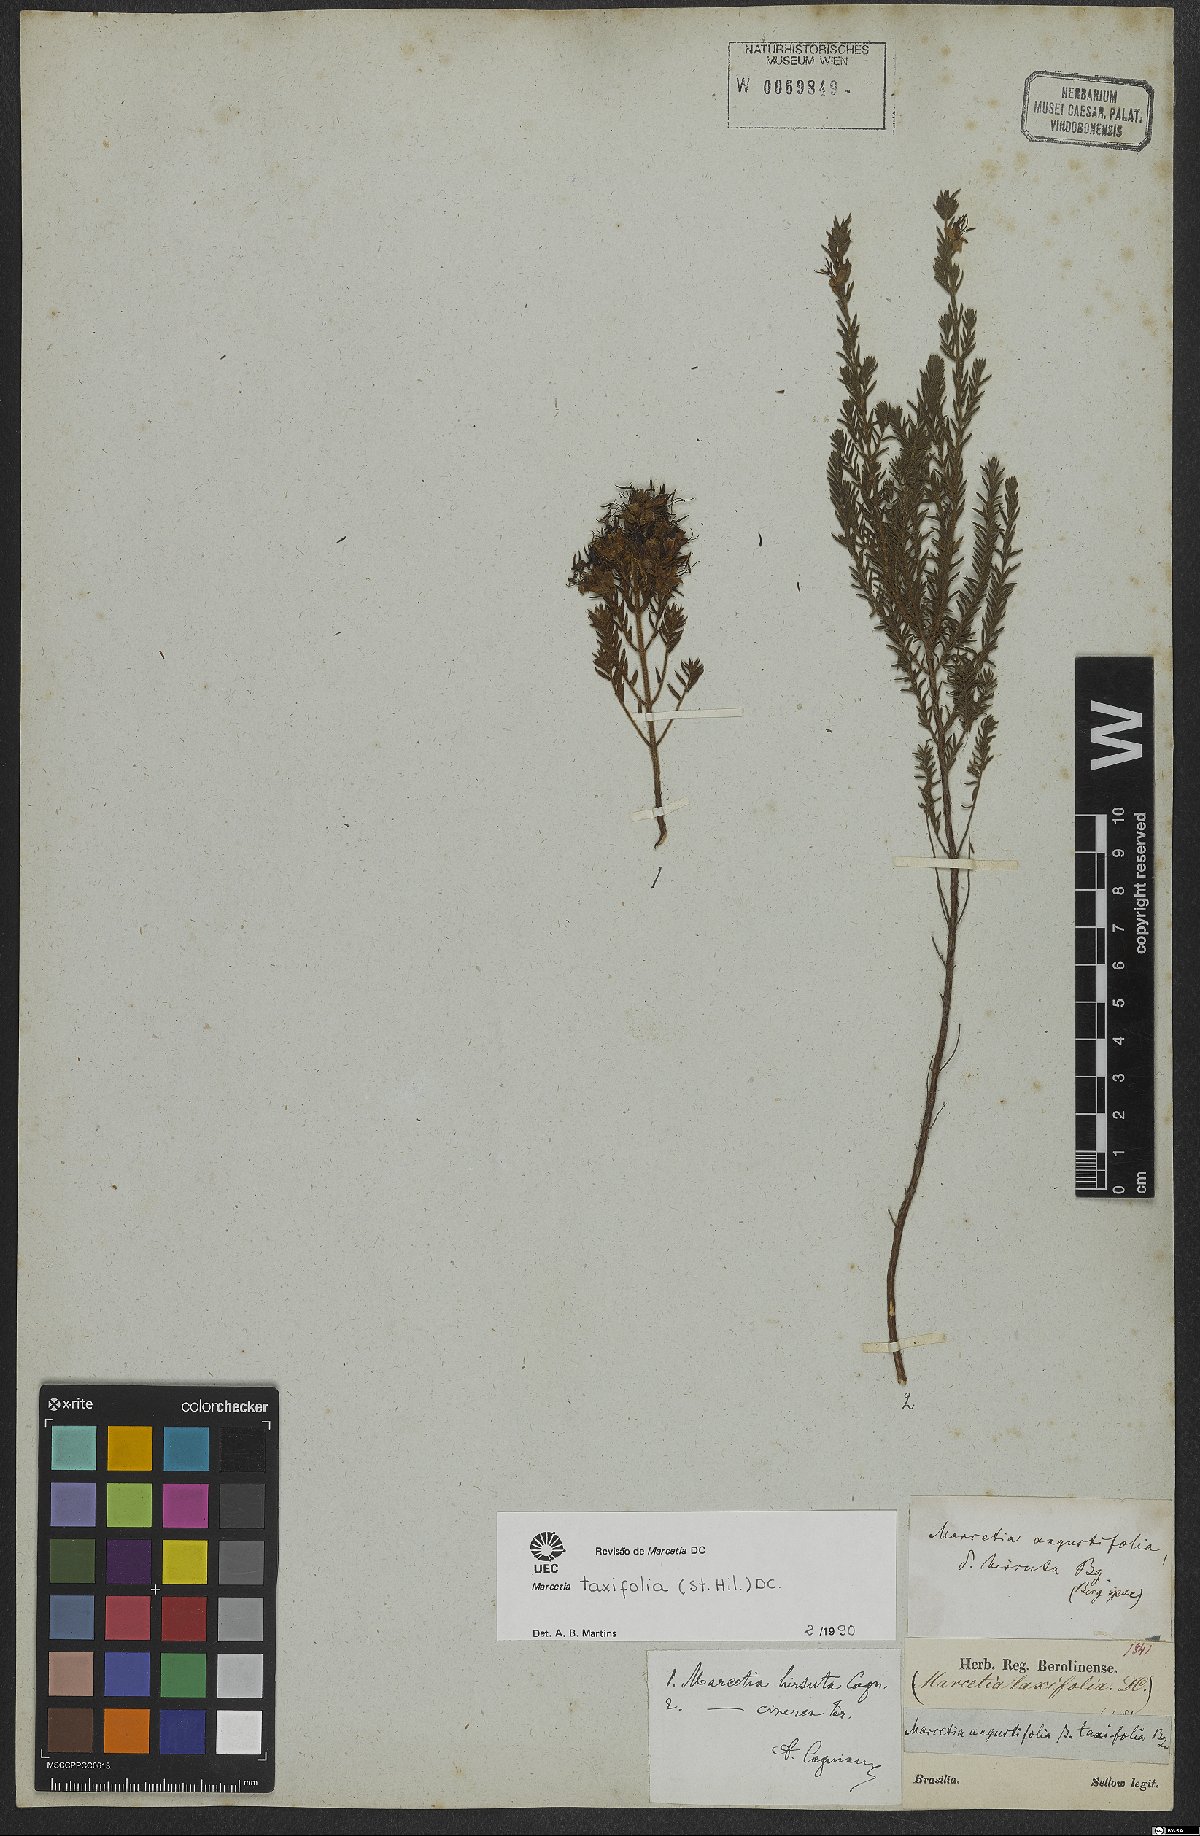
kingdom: Plantae
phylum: Tracheophyta
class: Magnoliopsida
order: Myrtales
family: Melastomataceae
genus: Marcetia
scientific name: Marcetia taxifolia
